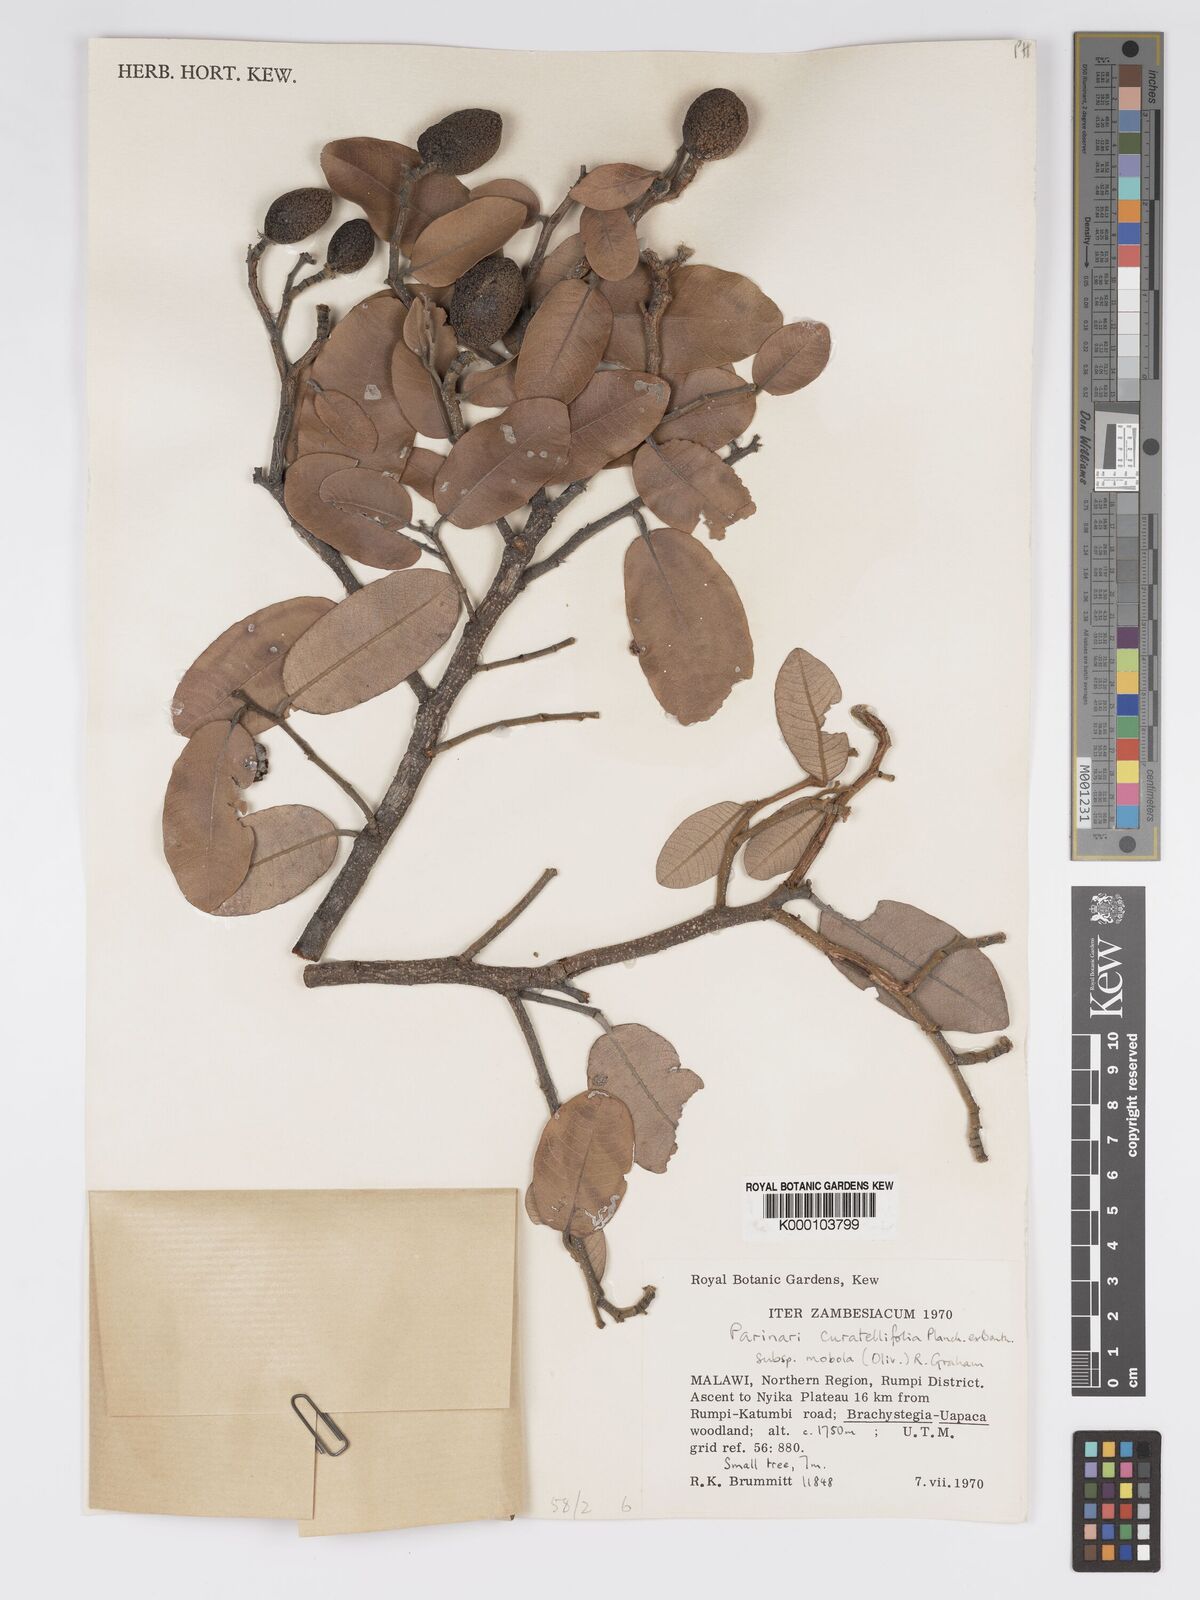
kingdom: Plantae
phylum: Tracheophyta
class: Magnoliopsida
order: Malpighiales
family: Chrysobalanaceae
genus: Parinari
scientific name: Parinari curatellifolia
